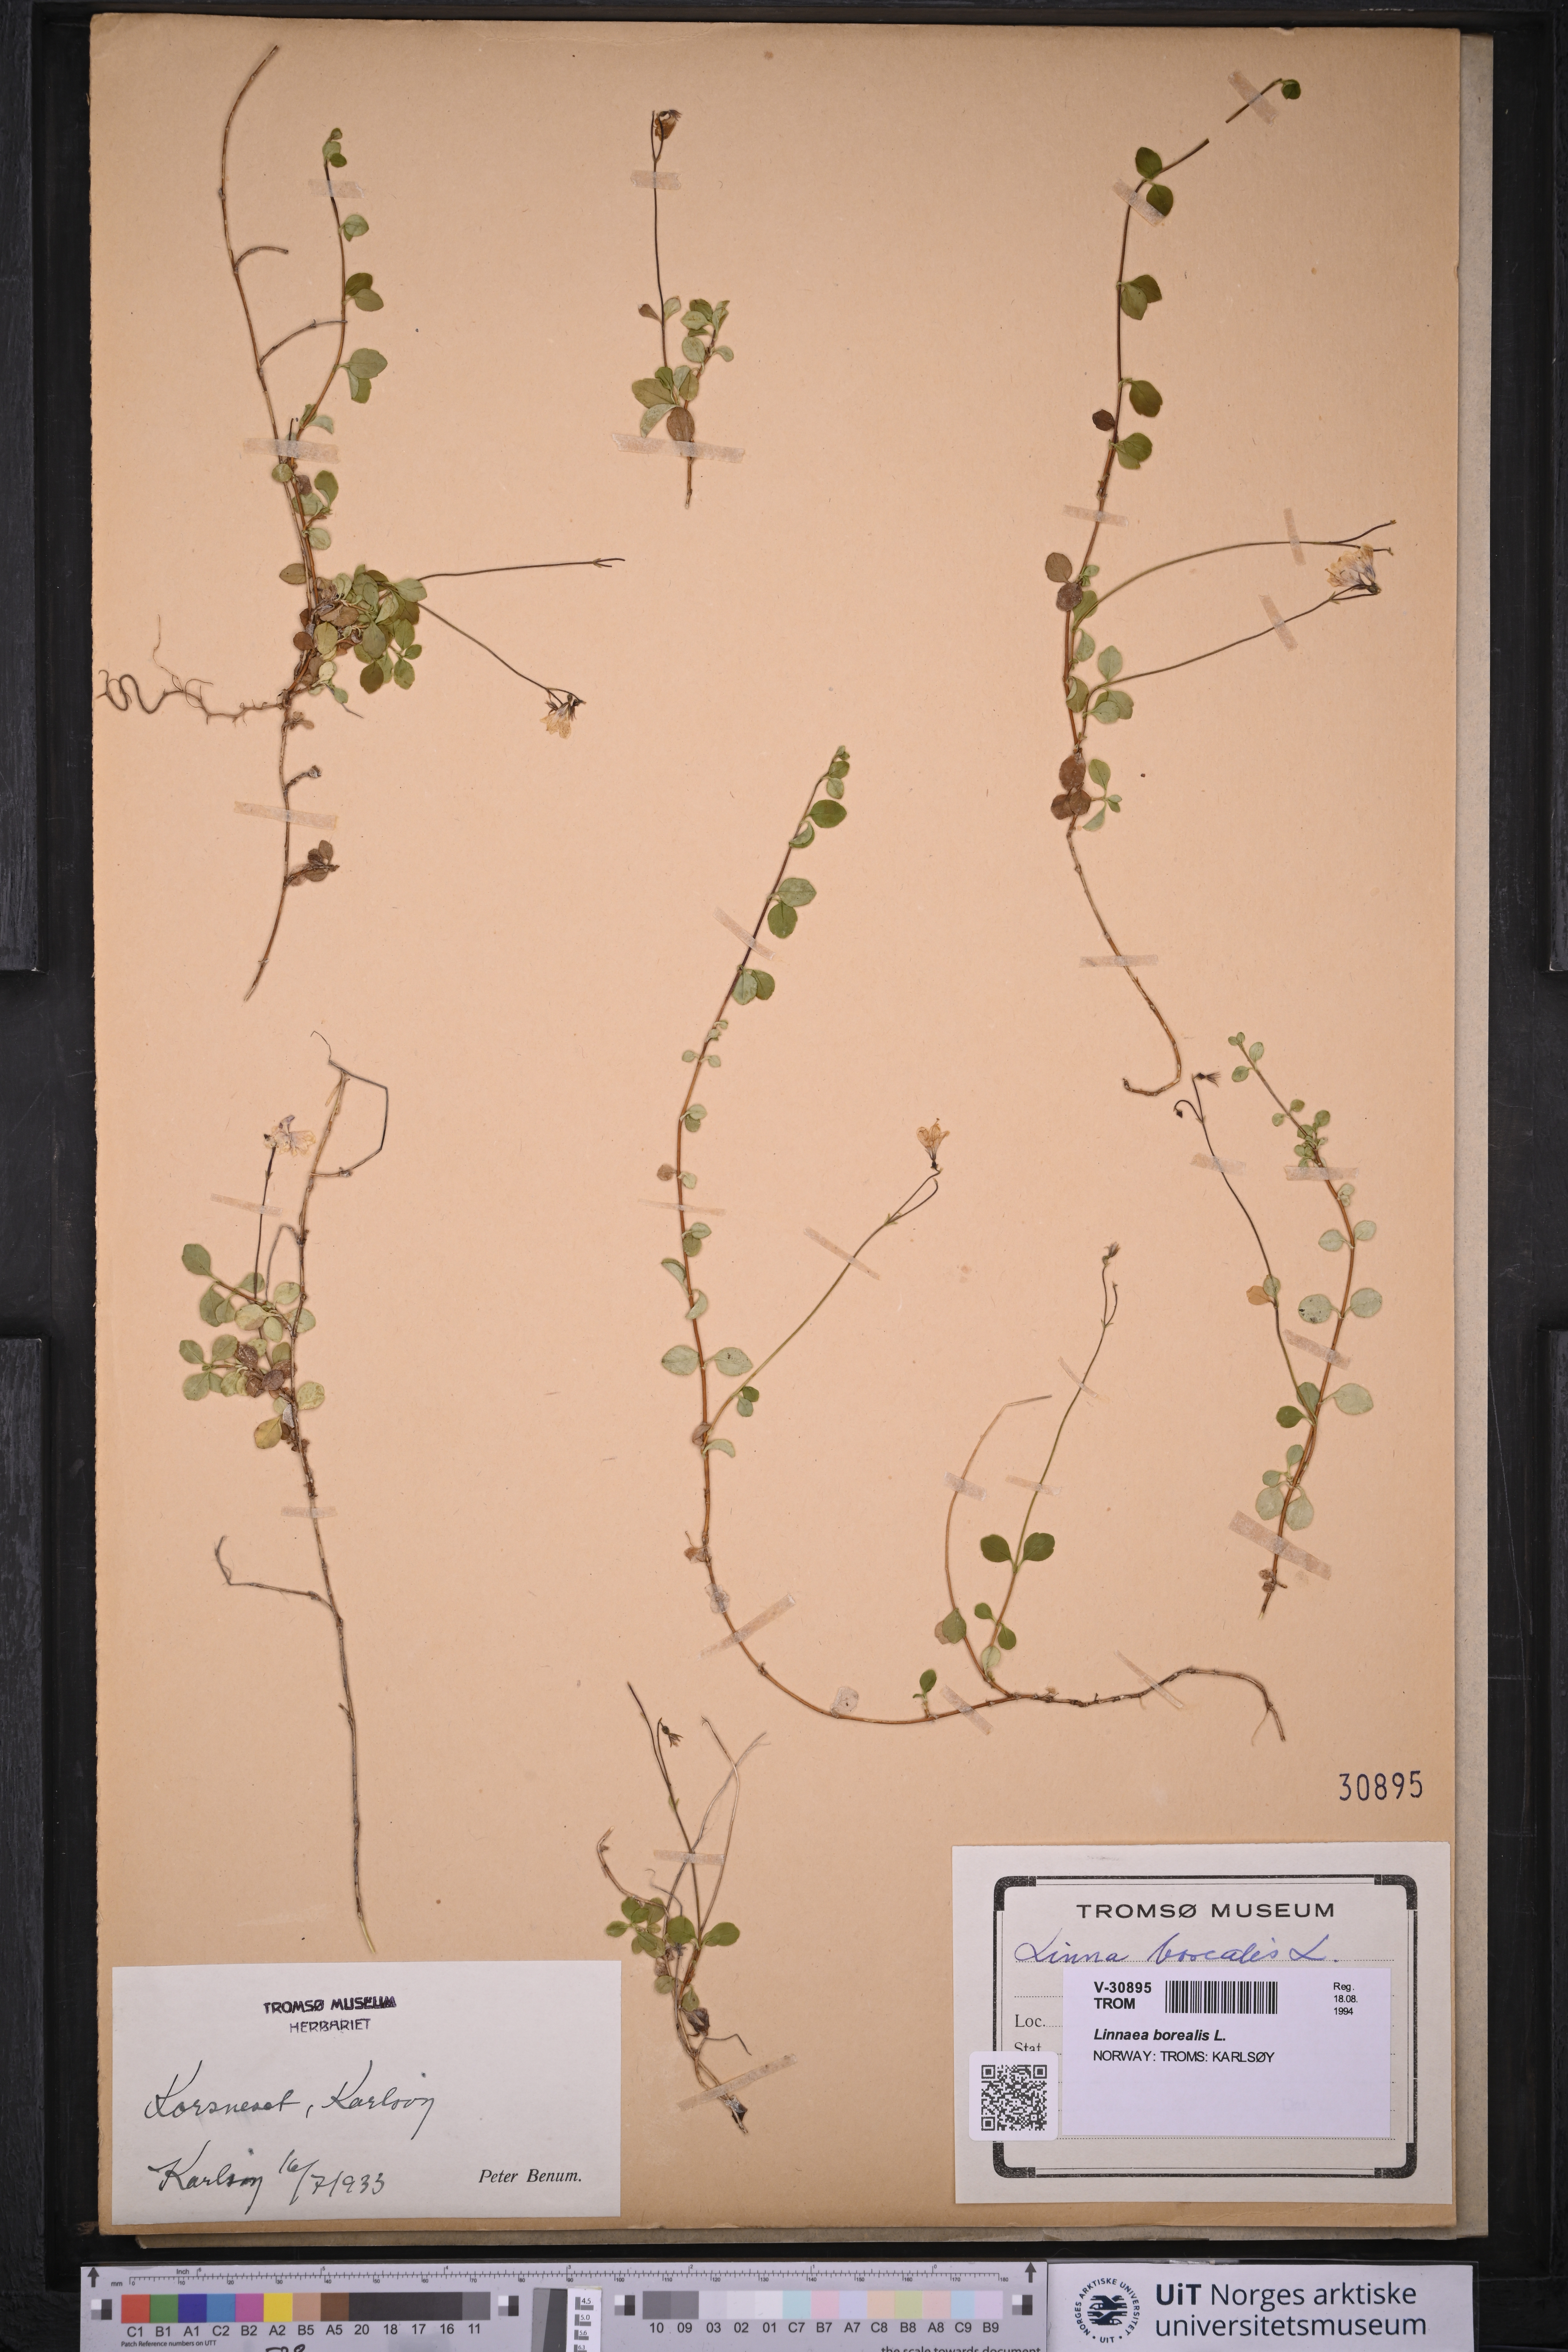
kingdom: Plantae
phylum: Tracheophyta
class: Magnoliopsida
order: Dipsacales
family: Caprifoliaceae
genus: Linnaea
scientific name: Linnaea borealis
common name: Twinflower
